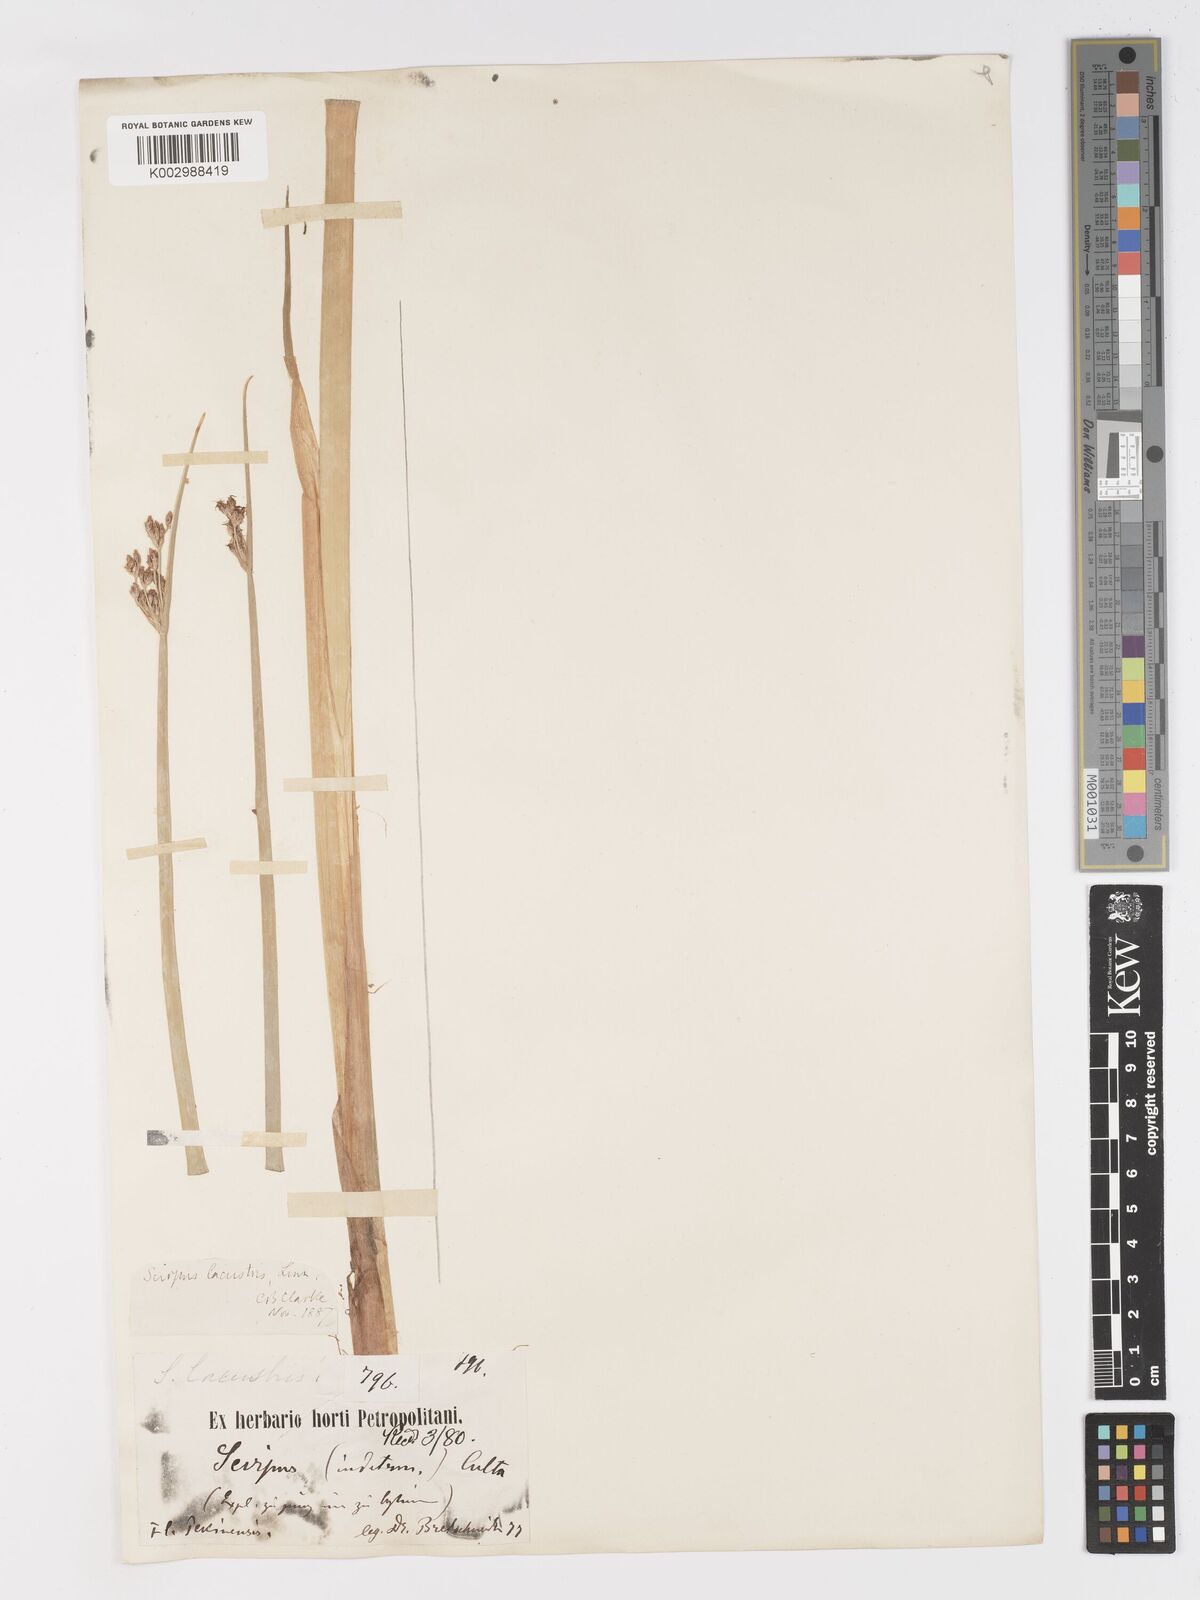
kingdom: Plantae
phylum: Tracheophyta
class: Liliopsida
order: Poales
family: Cyperaceae
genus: Schoenoplectus
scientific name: Schoenoplectus lacustris
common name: Common club-rush
